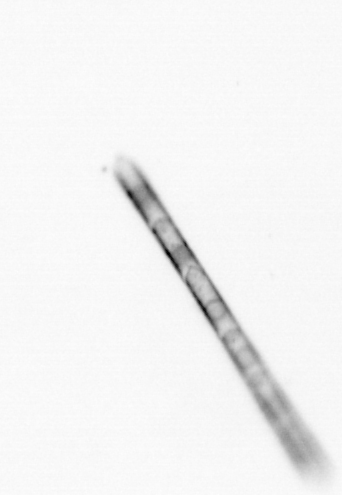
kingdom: Chromista
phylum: Ochrophyta
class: Bacillariophyceae
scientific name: Bacillariophyceae
